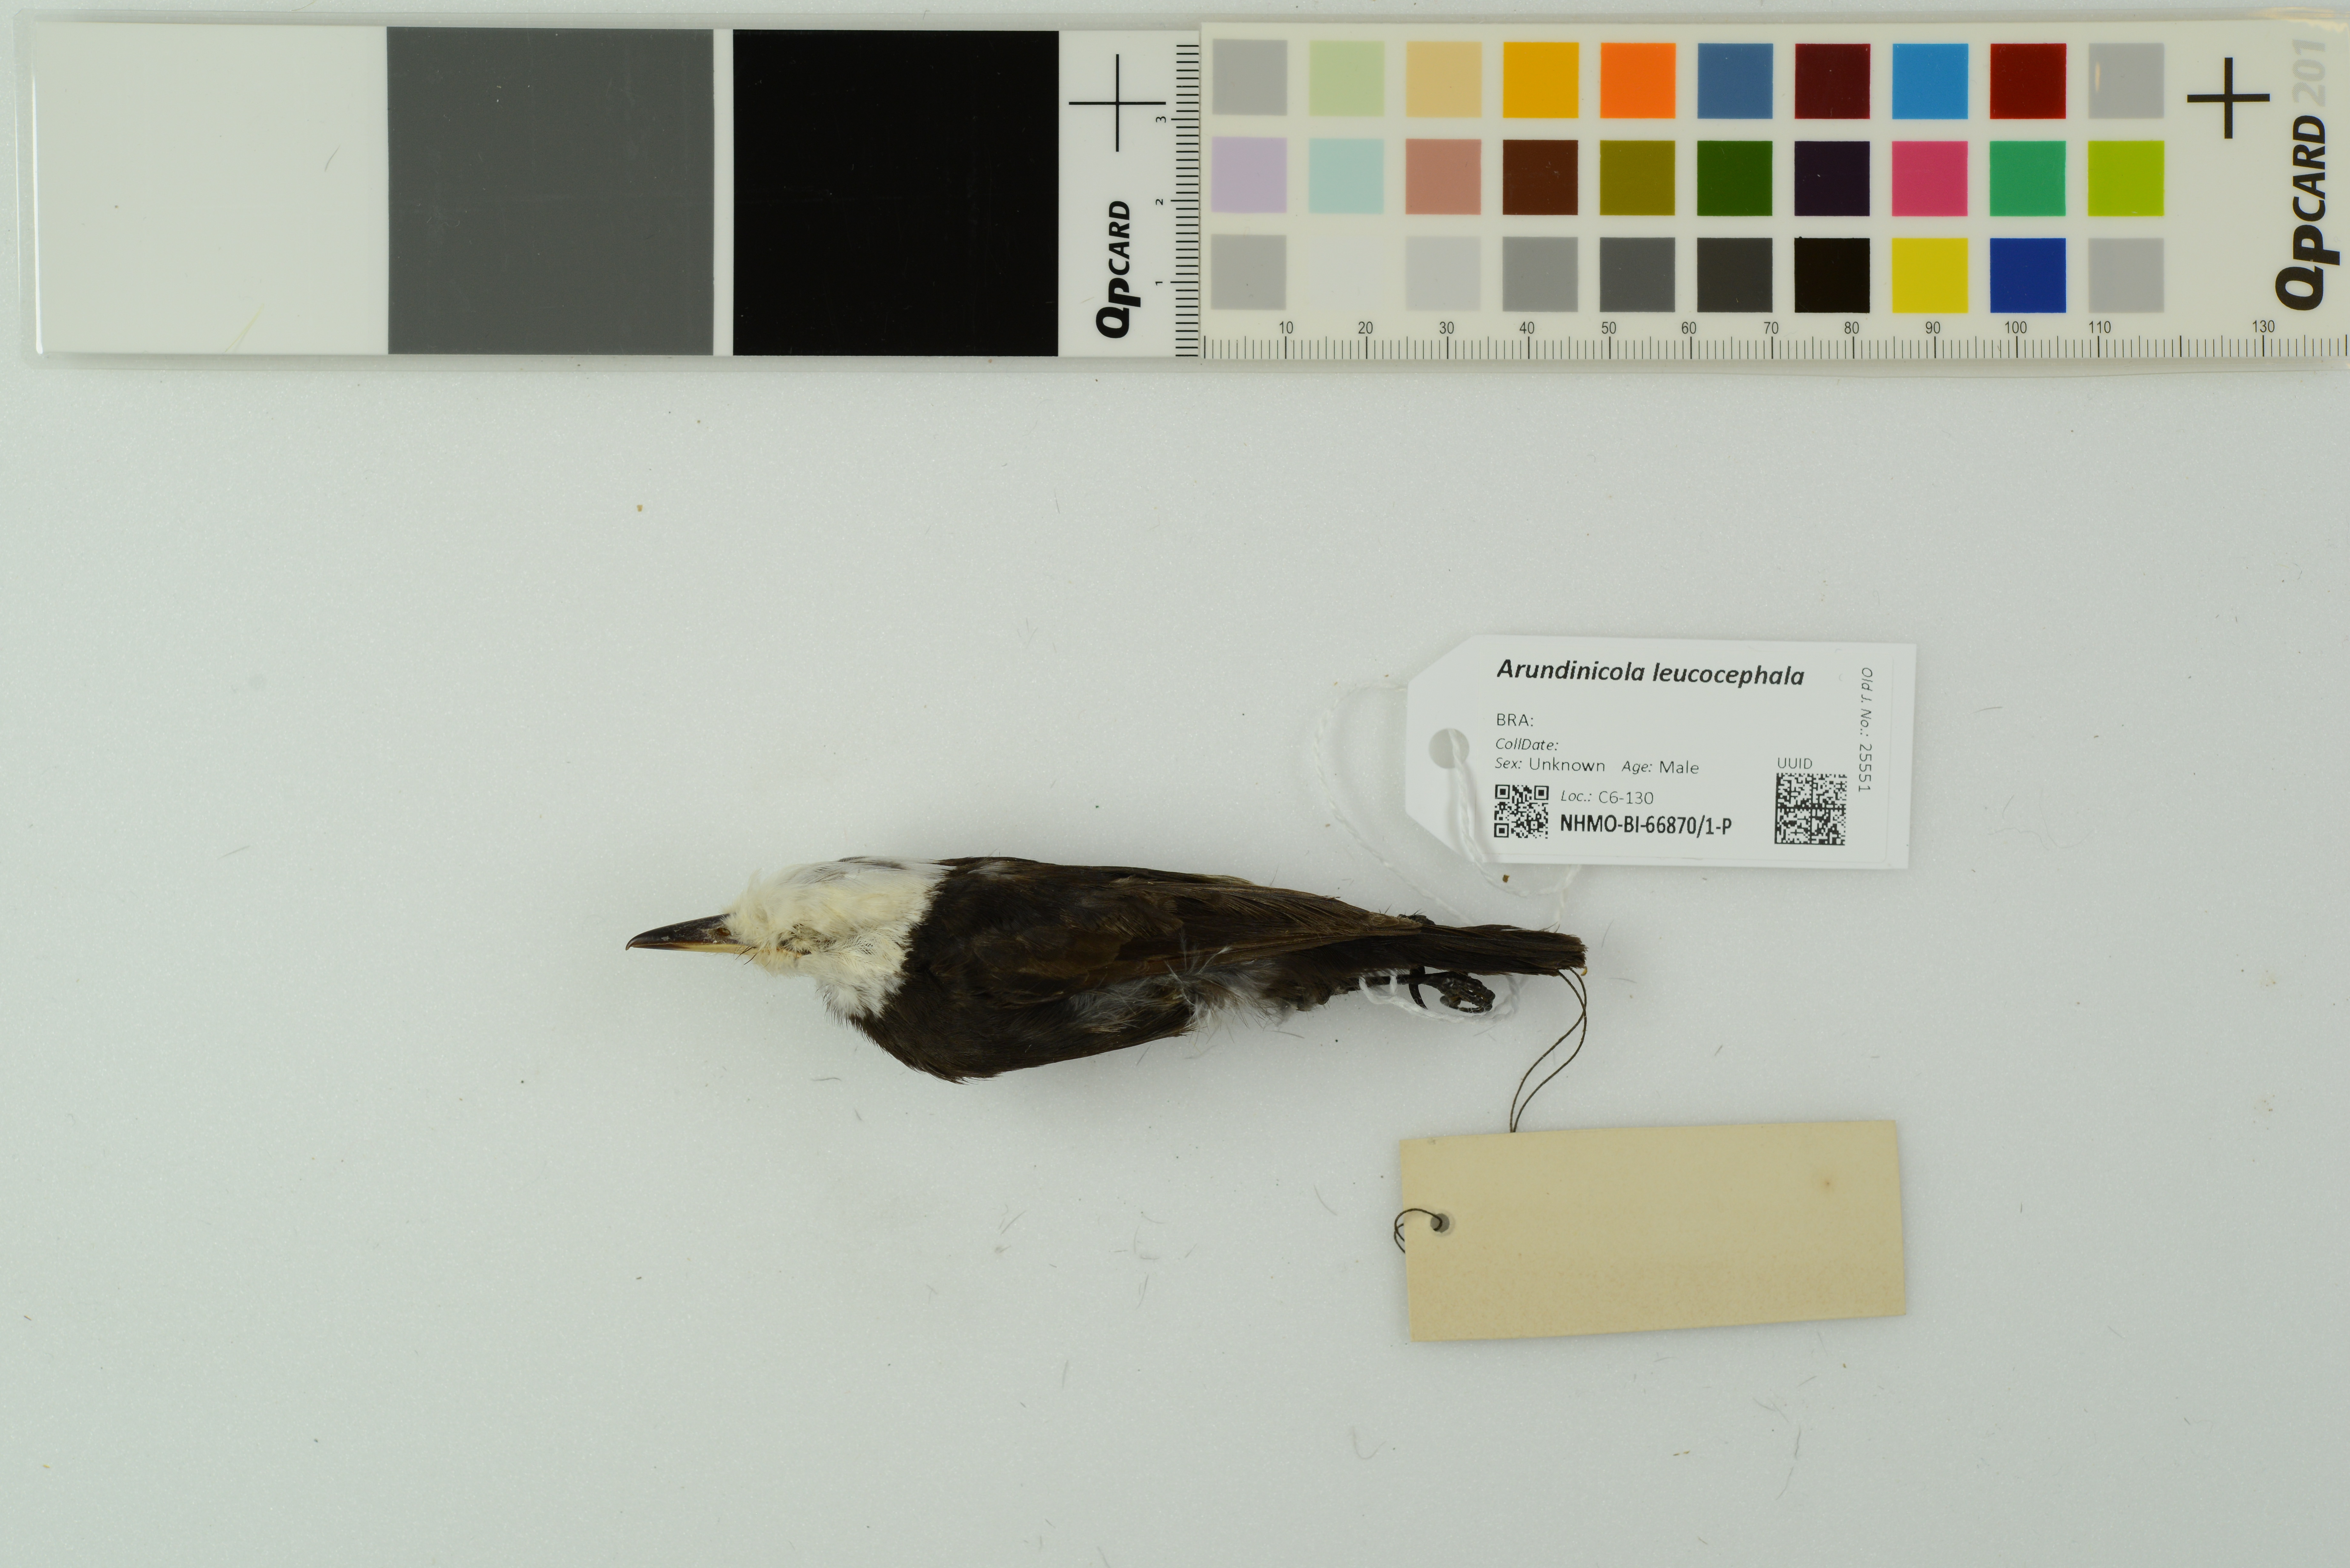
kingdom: Animalia
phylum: Chordata
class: Aves
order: Passeriformes
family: Tyrannidae
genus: Arundinicola
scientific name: Arundinicola leucocephala
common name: White-headed marsh tyrant
